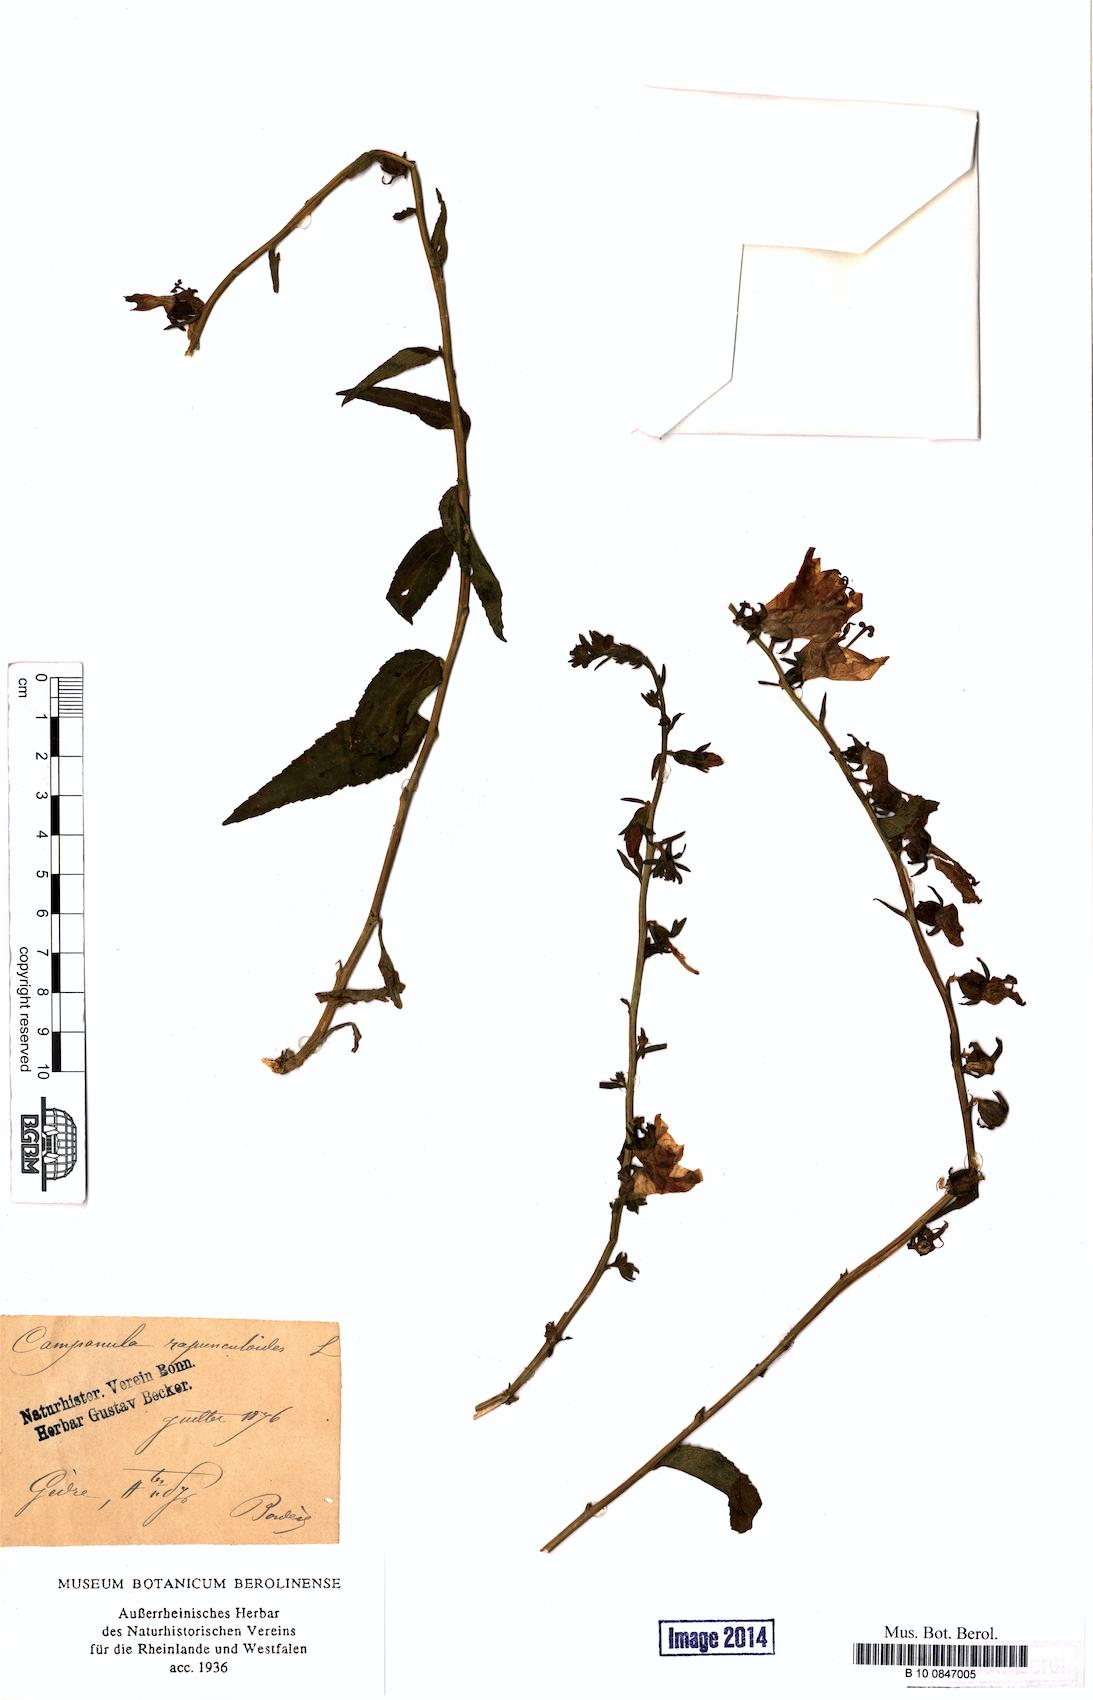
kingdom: Plantae
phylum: Tracheophyta
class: Magnoliopsida
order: Asterales
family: Campanulaceae
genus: Campanula
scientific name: Campanula rapunculoides
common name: Creeping bellflower
